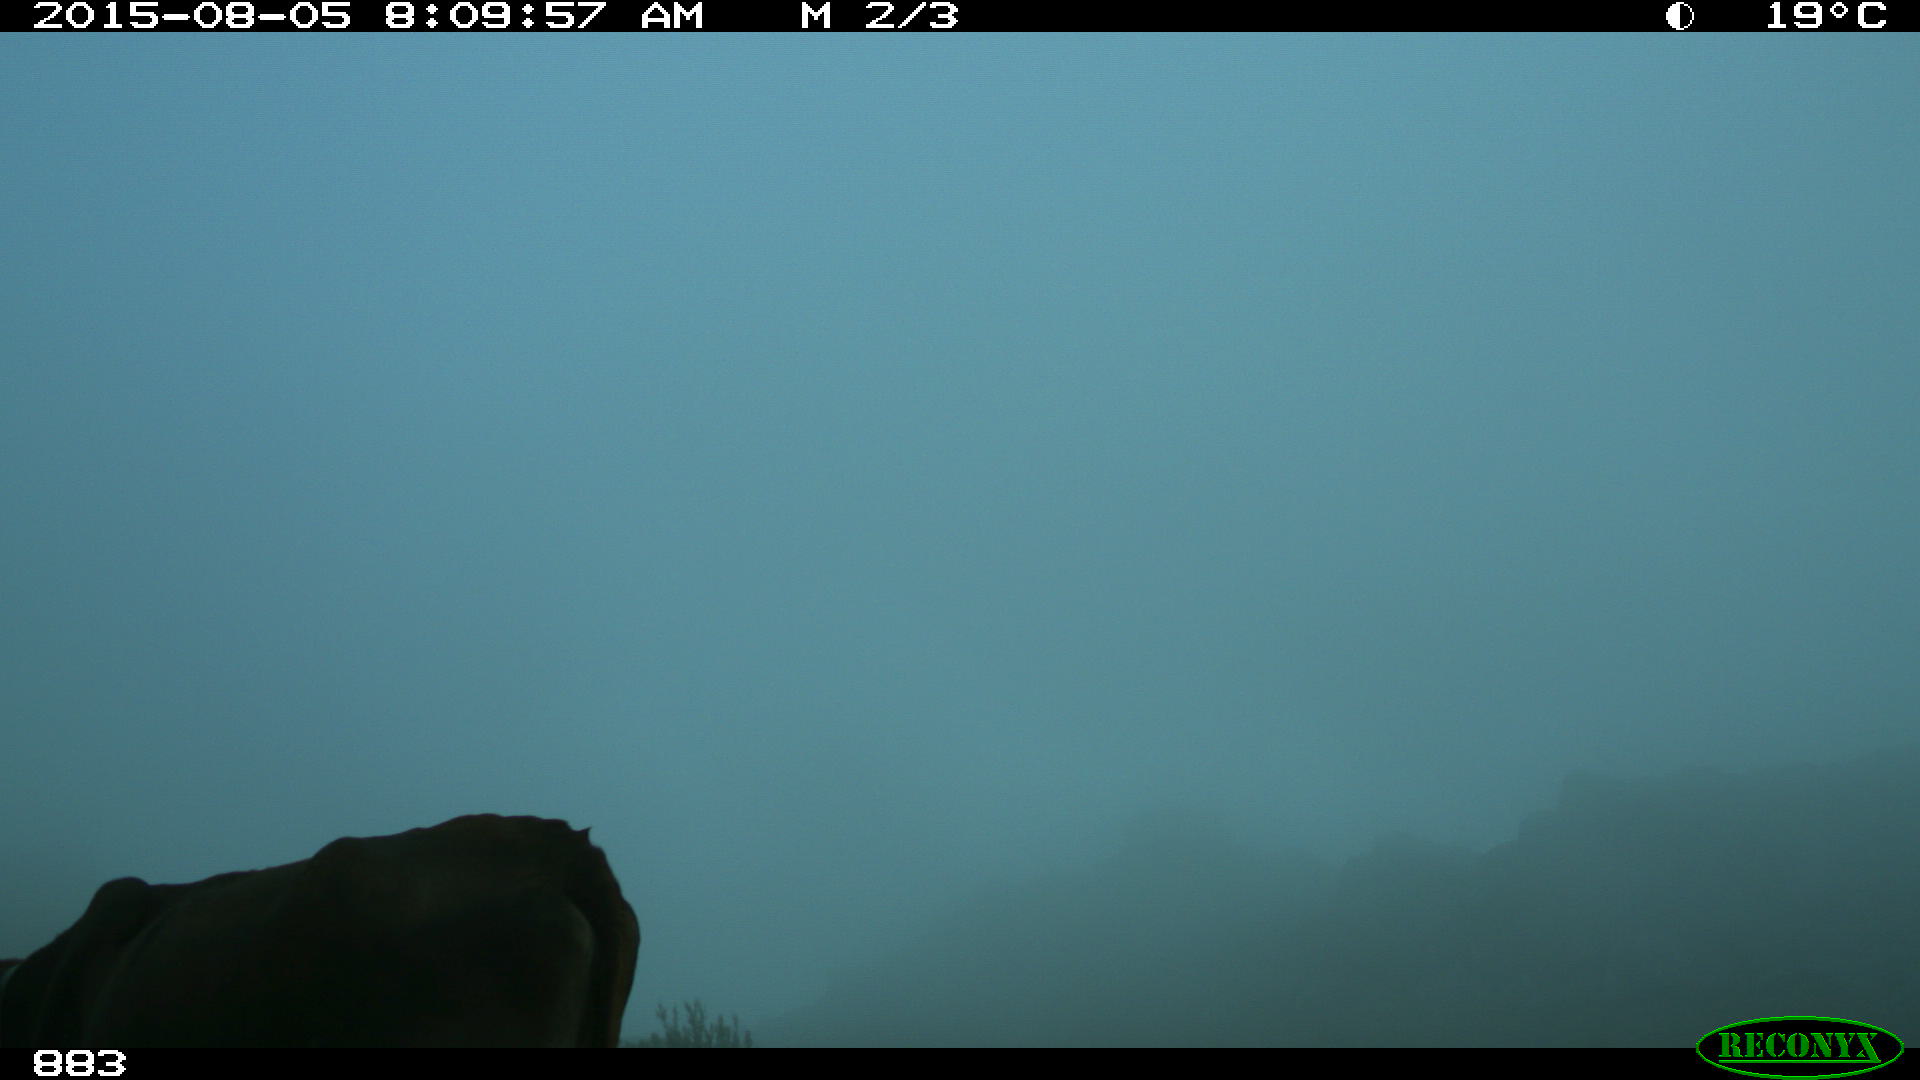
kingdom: Animalia
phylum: Chordata
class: Mammalia
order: Artiodactyla
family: Bovidae
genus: Bos
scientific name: Bos taurus
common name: Domesticated cattle
